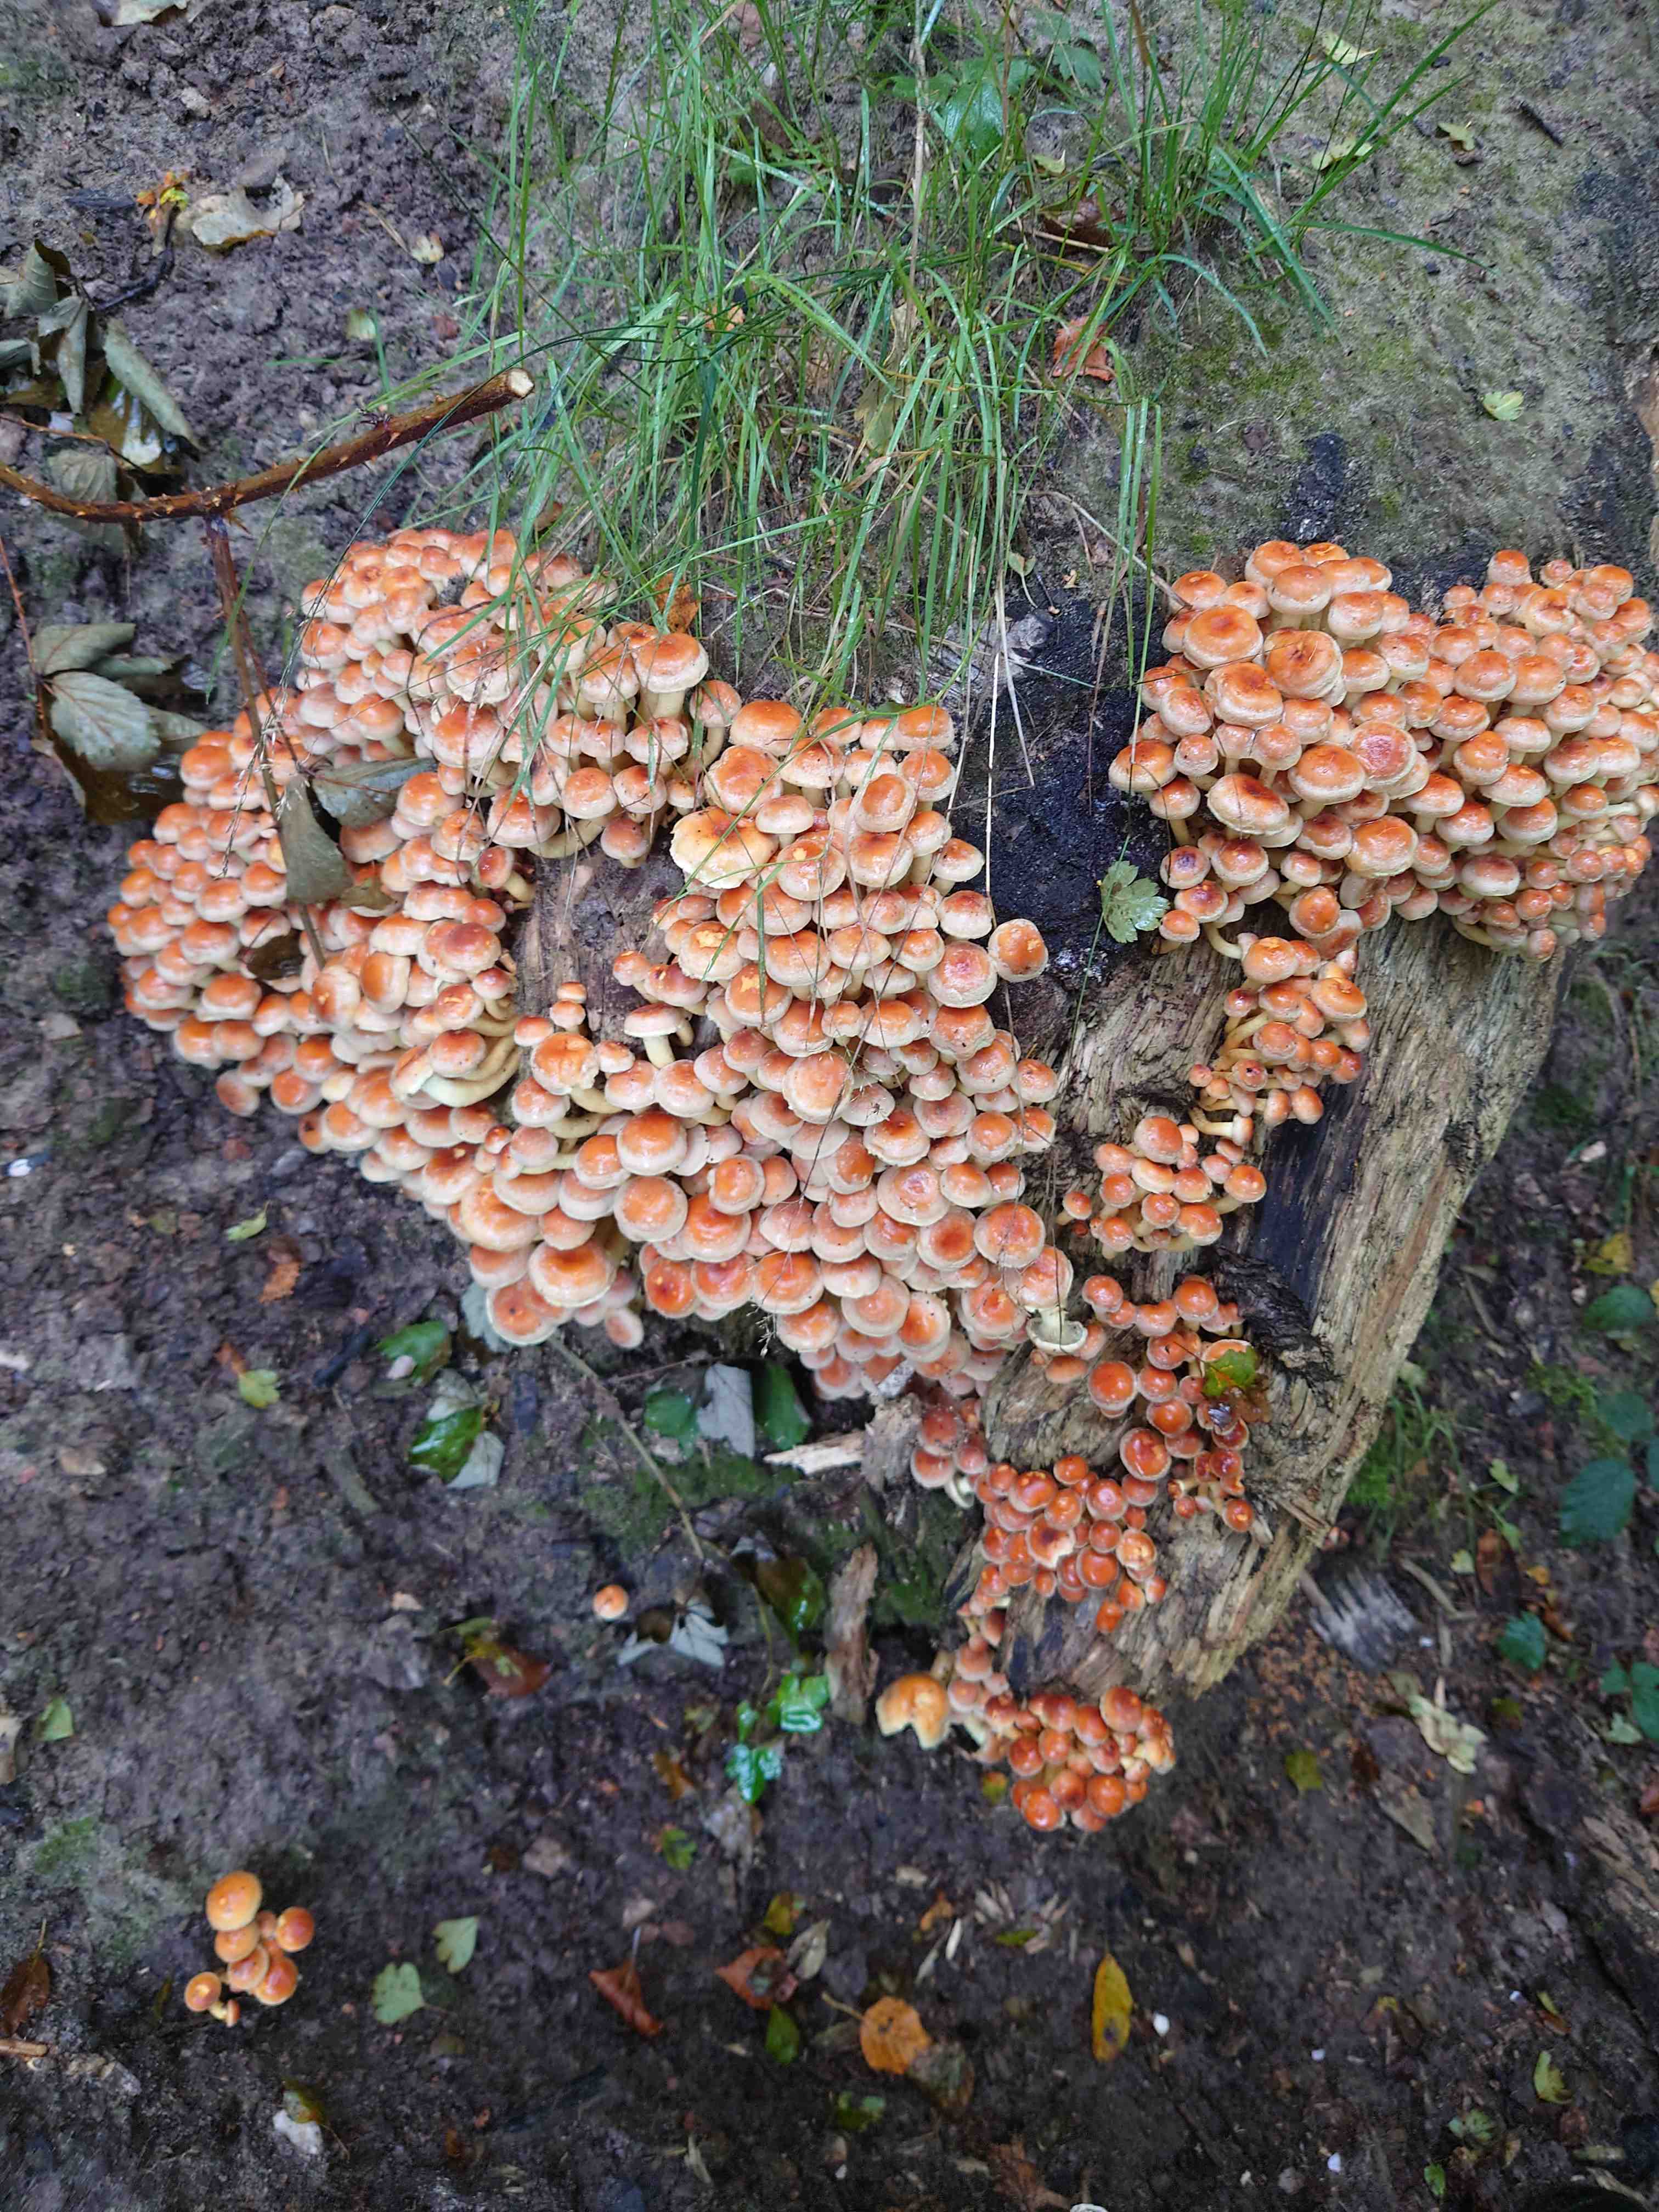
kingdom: Fungi
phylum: Basidiomycota
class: Agaricomycetes
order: Agaricales
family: Strophariaceae
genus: Hypholoma
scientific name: Hypholoma fasciculare
